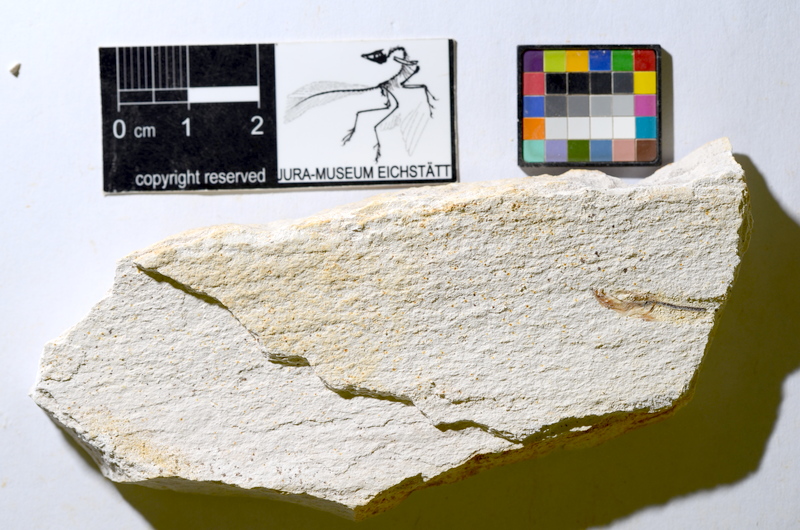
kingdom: Animalia
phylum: Chordata
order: Salmoniformes
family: Orthogonikleithridae
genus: Orthogonikleithrus
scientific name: Orthogonikleithrus hoelli
